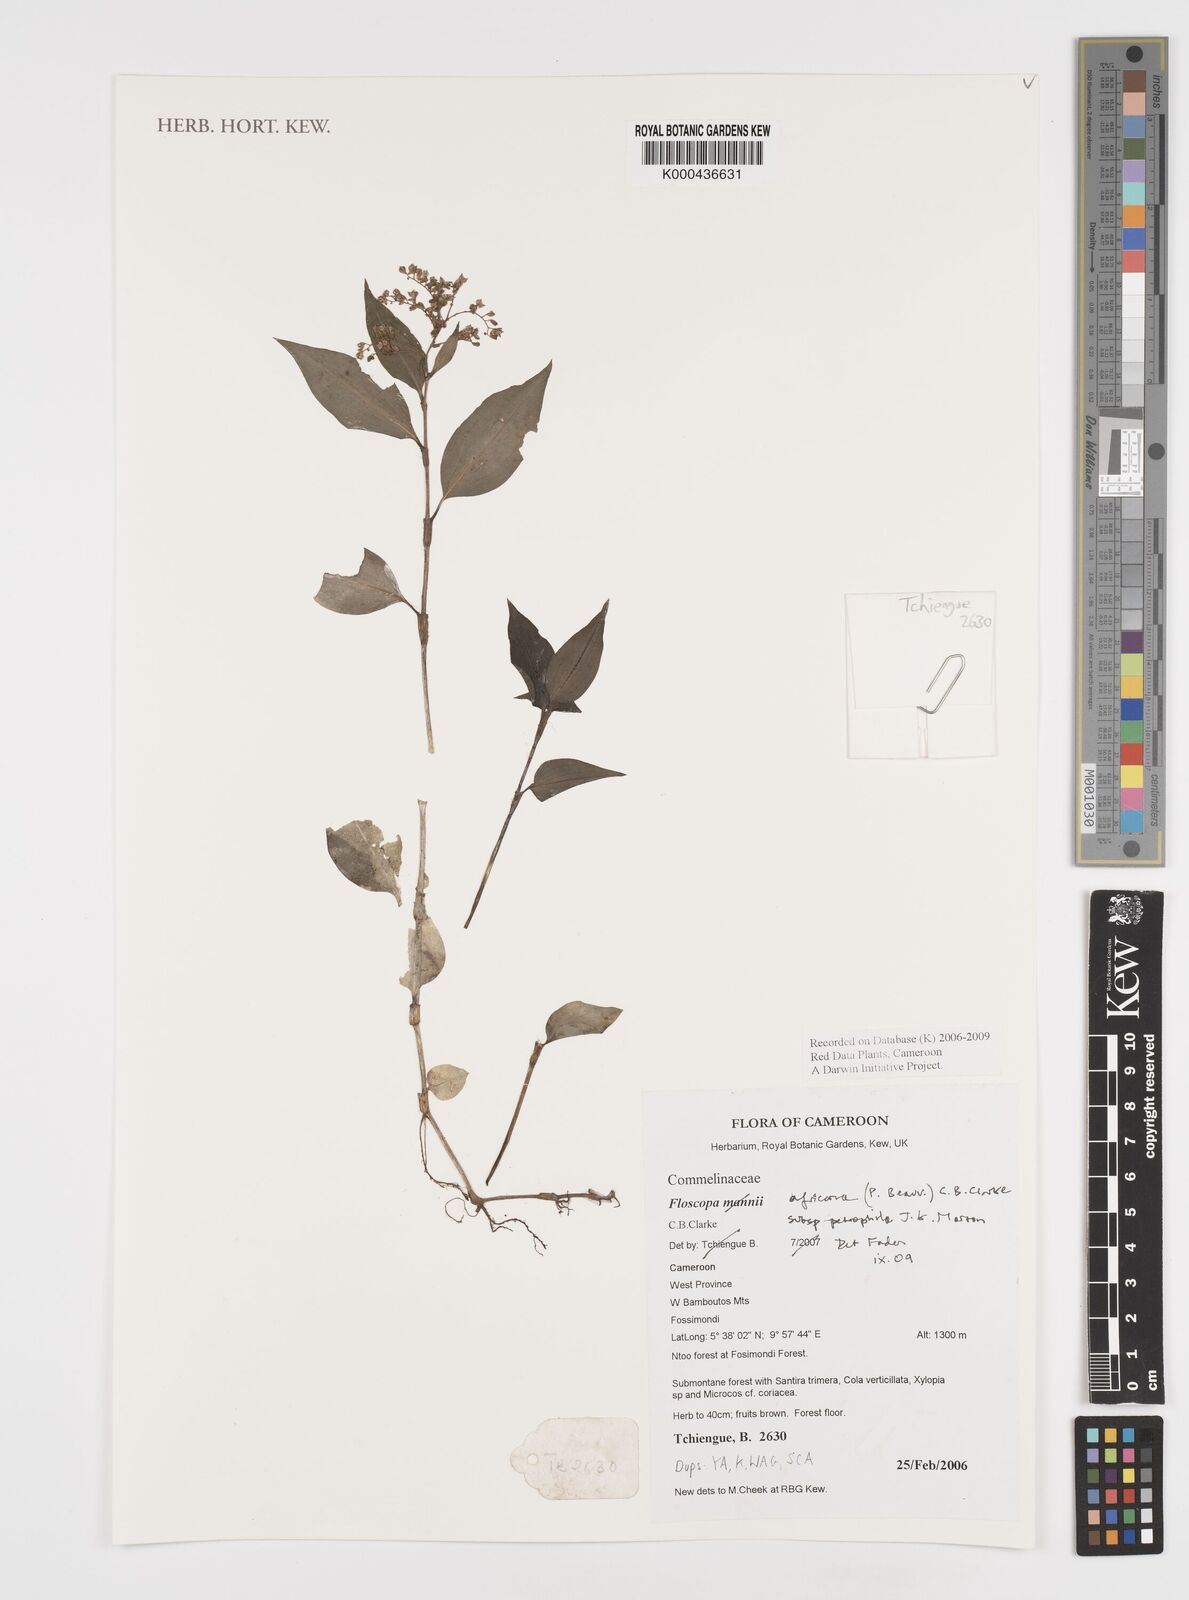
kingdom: Plantae
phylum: Tracheophyta
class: Liliopsida
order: Commelinales
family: Commelinaceae
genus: Floscopa
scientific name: Floscopa africana
